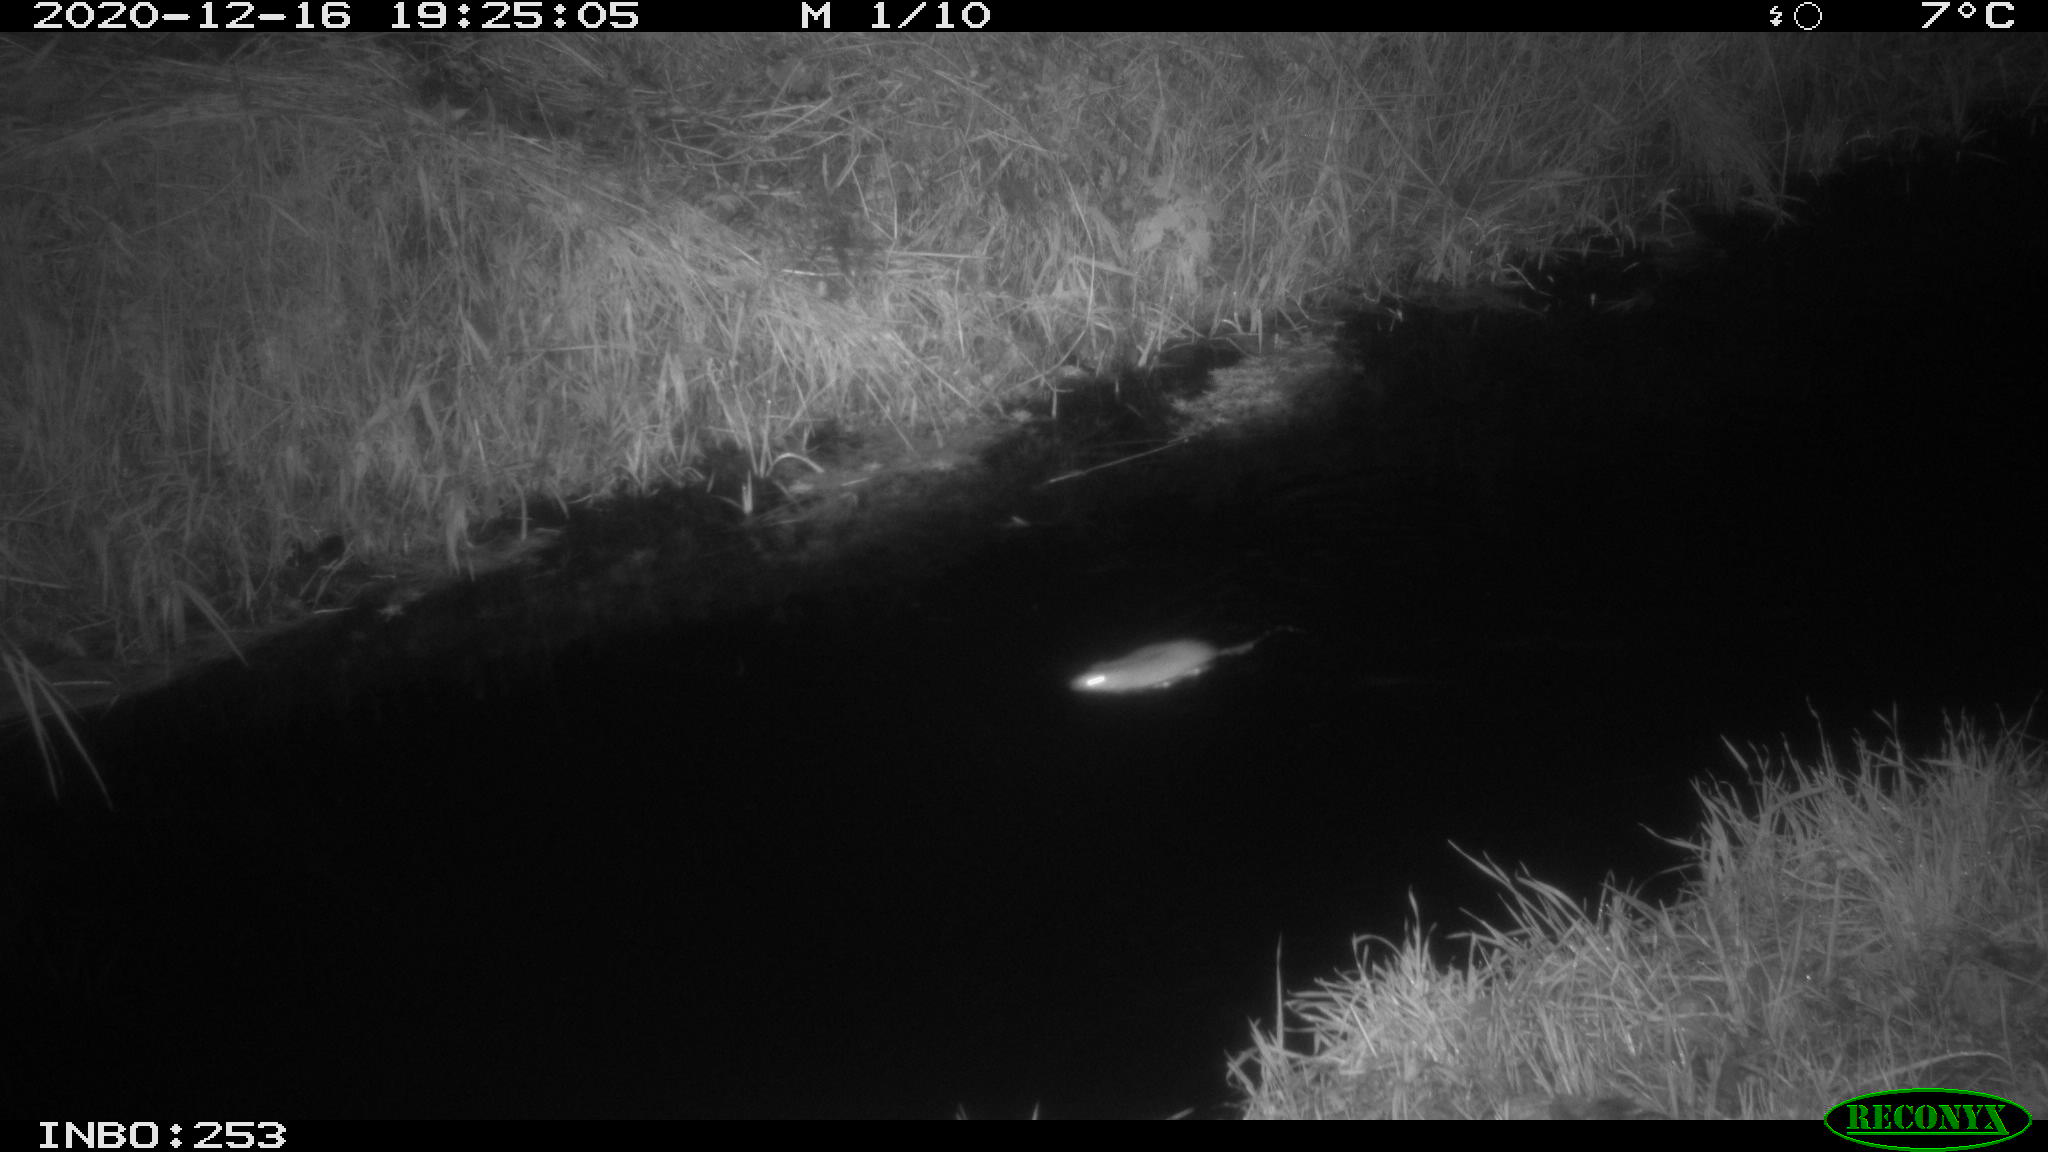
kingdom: Animalia
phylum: Chordata
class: Mammalia
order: Rodentia
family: Muridae
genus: Rattus
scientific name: Rattus norvegicus
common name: Brown rat
